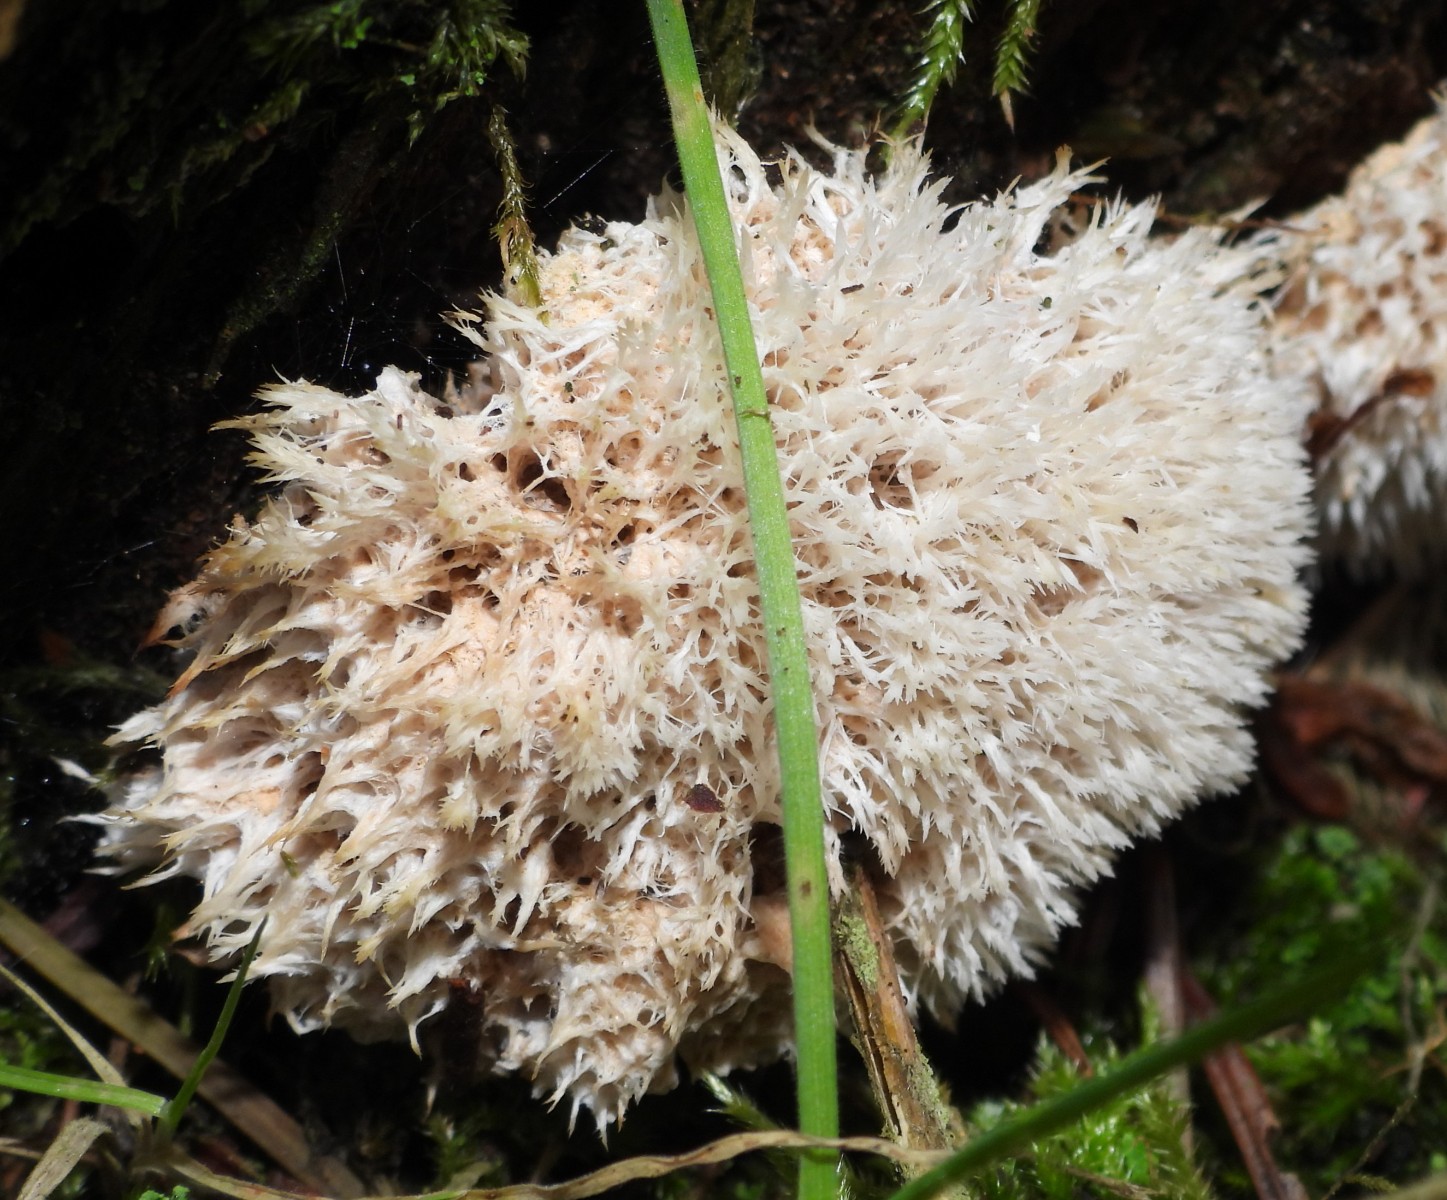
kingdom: Fungi
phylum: Basidiomycota
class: Agaricomycetes
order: Polyporales
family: Dacryobolaceae
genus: Postia
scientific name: Postia ptychogaster
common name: støvende kødporesvamp
